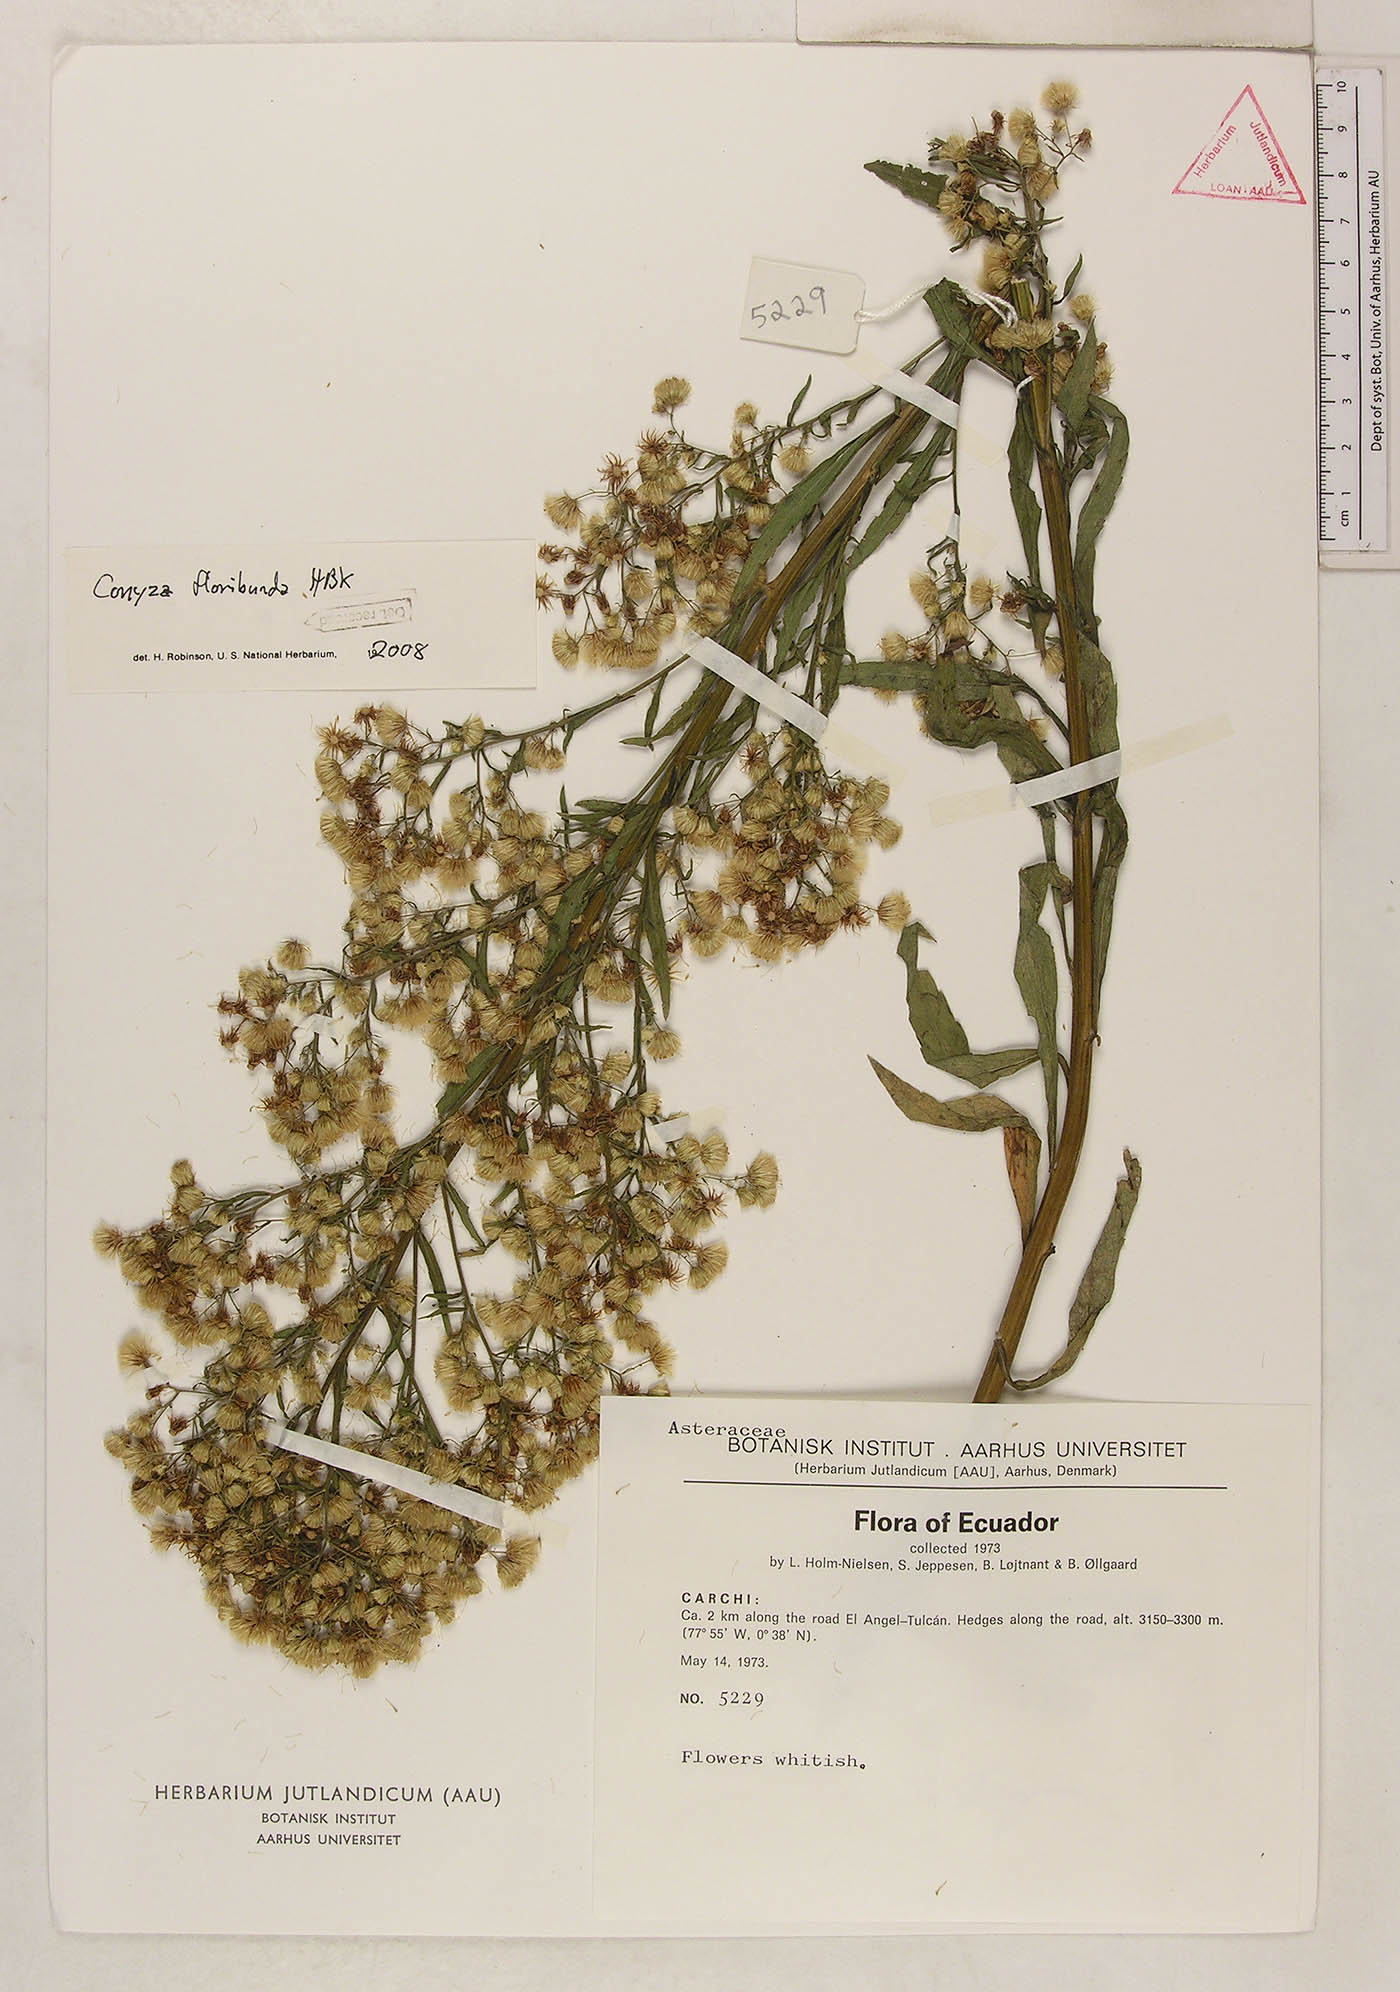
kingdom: Plantae
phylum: Tracheophyta
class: Magnoliopsida
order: Asterales
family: Asteraceae
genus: Erigeron
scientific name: Erigeron floribundus
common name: Bilbao fleabane
